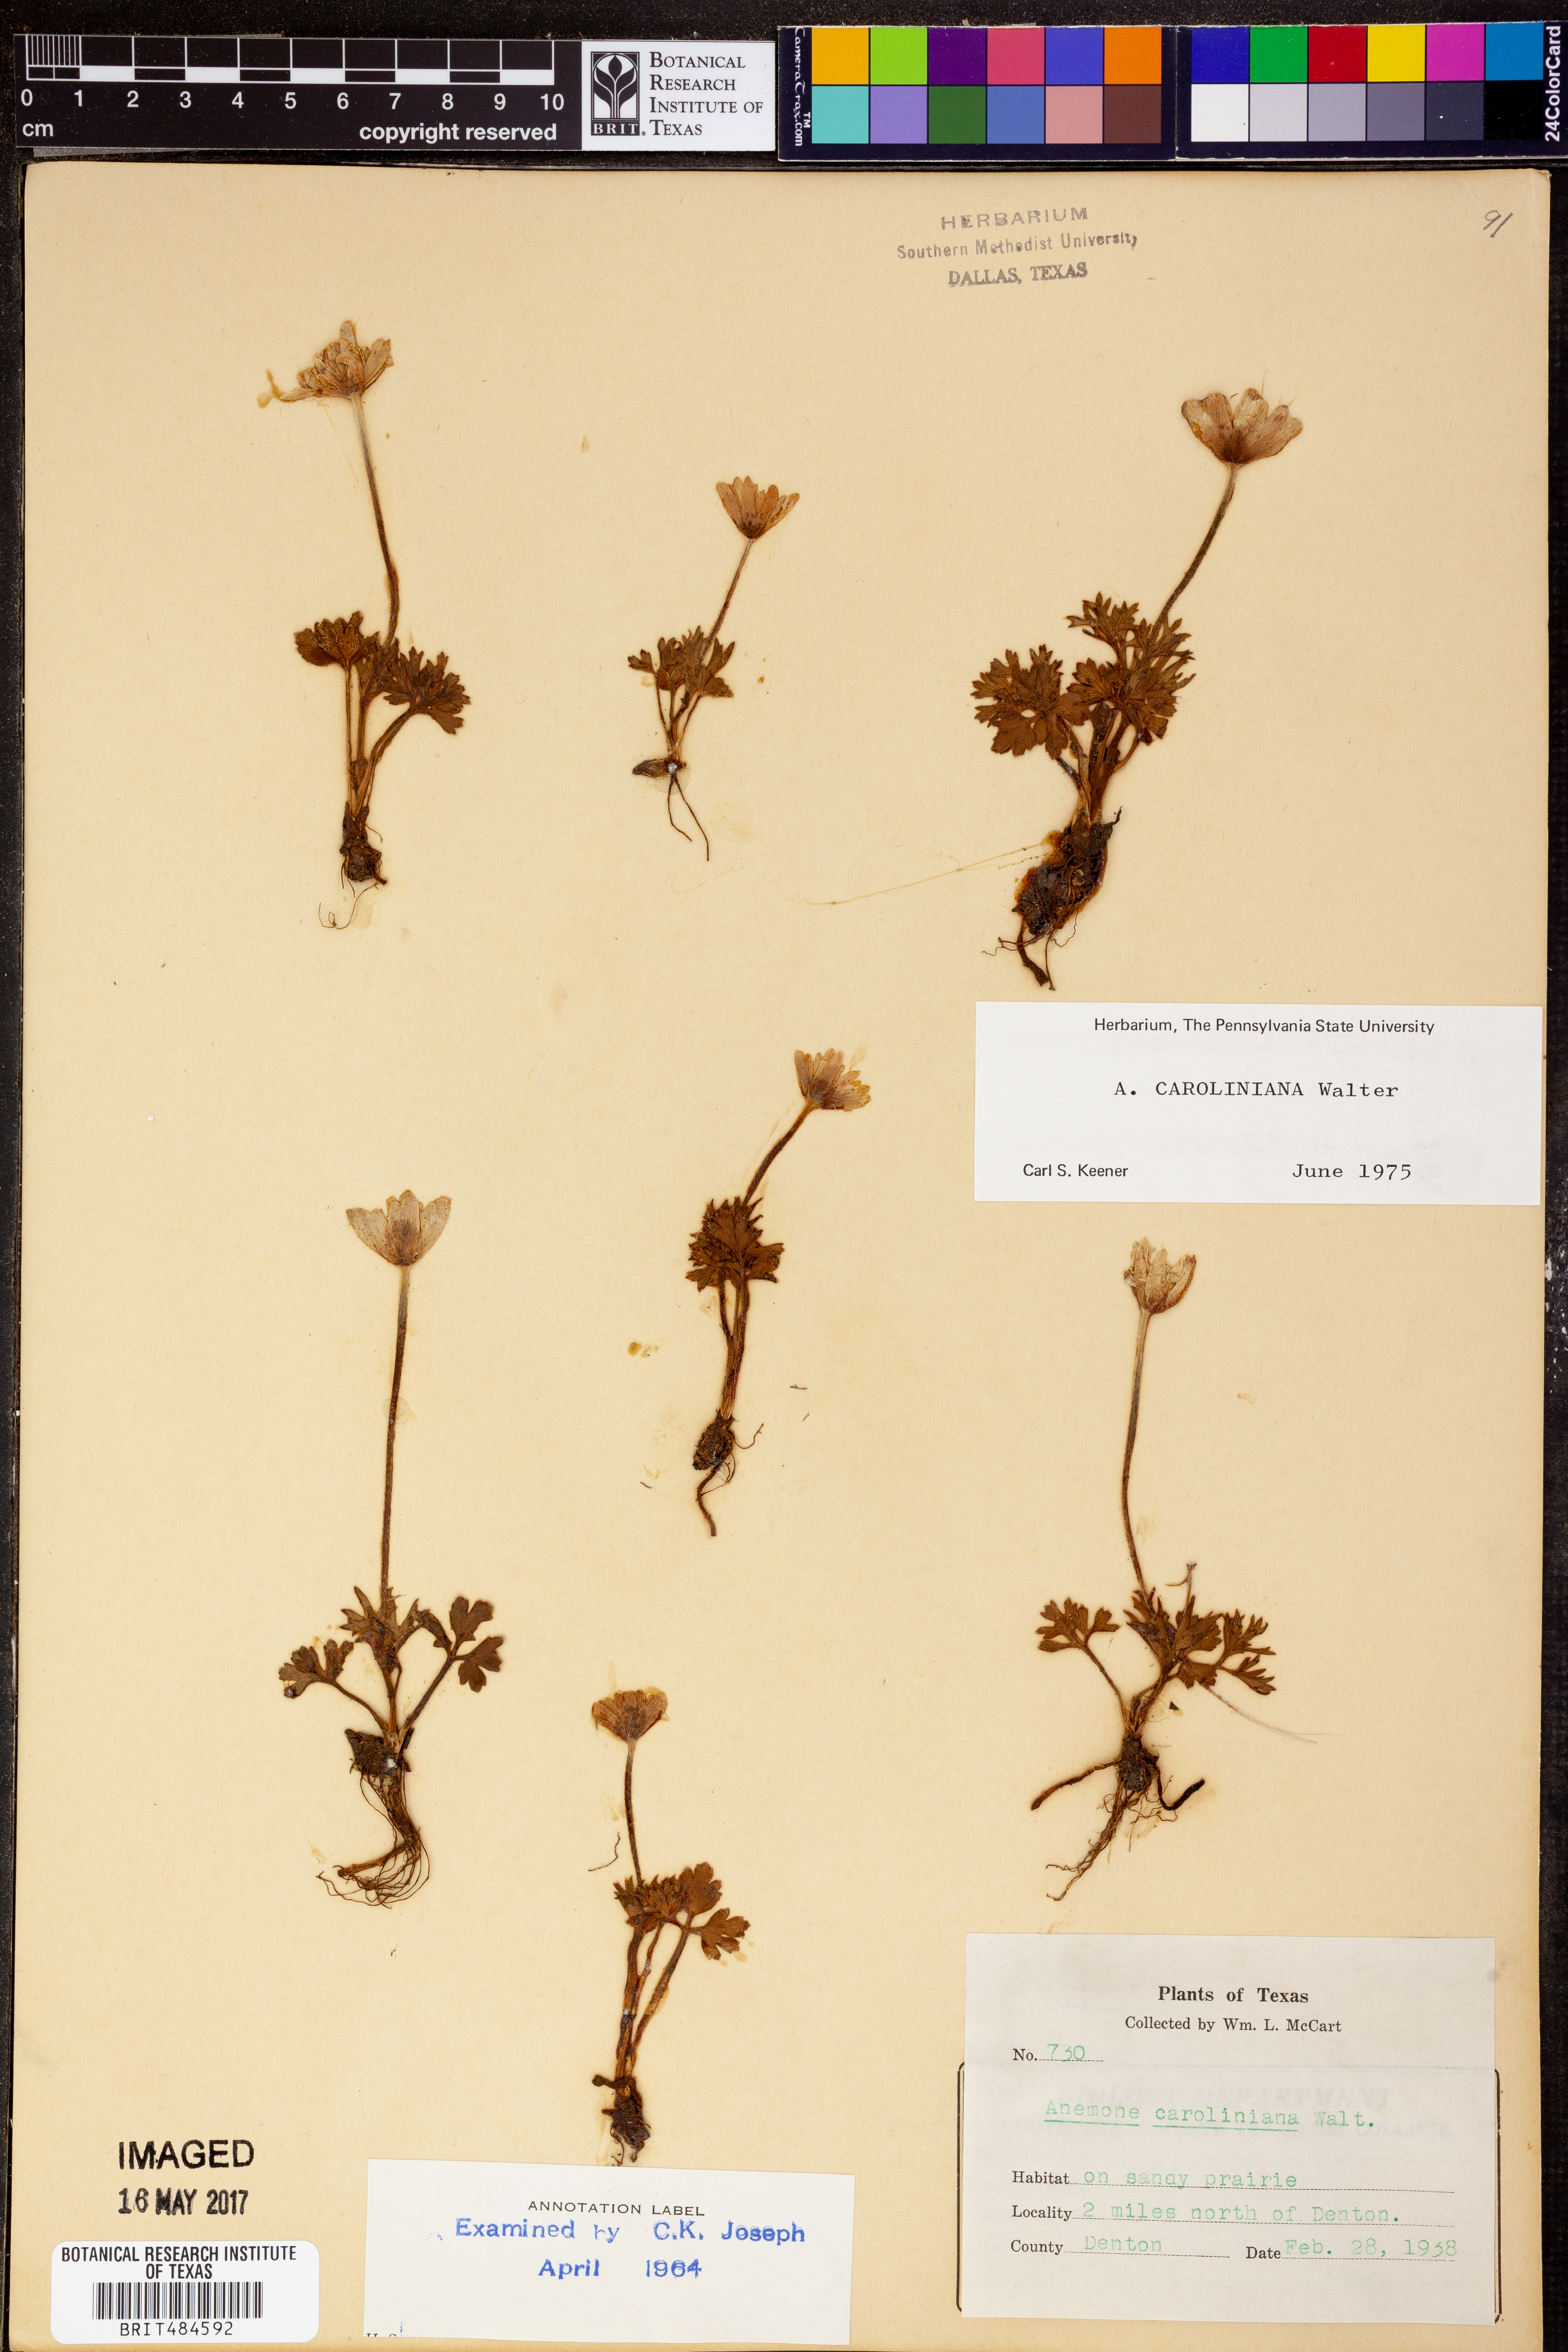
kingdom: Plantae
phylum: Tracheophyta
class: Magnoliopsida
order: Ranunculales
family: Ranunculaceae
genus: Anemone
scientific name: Anemone caroliniana
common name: Carolina anemone
